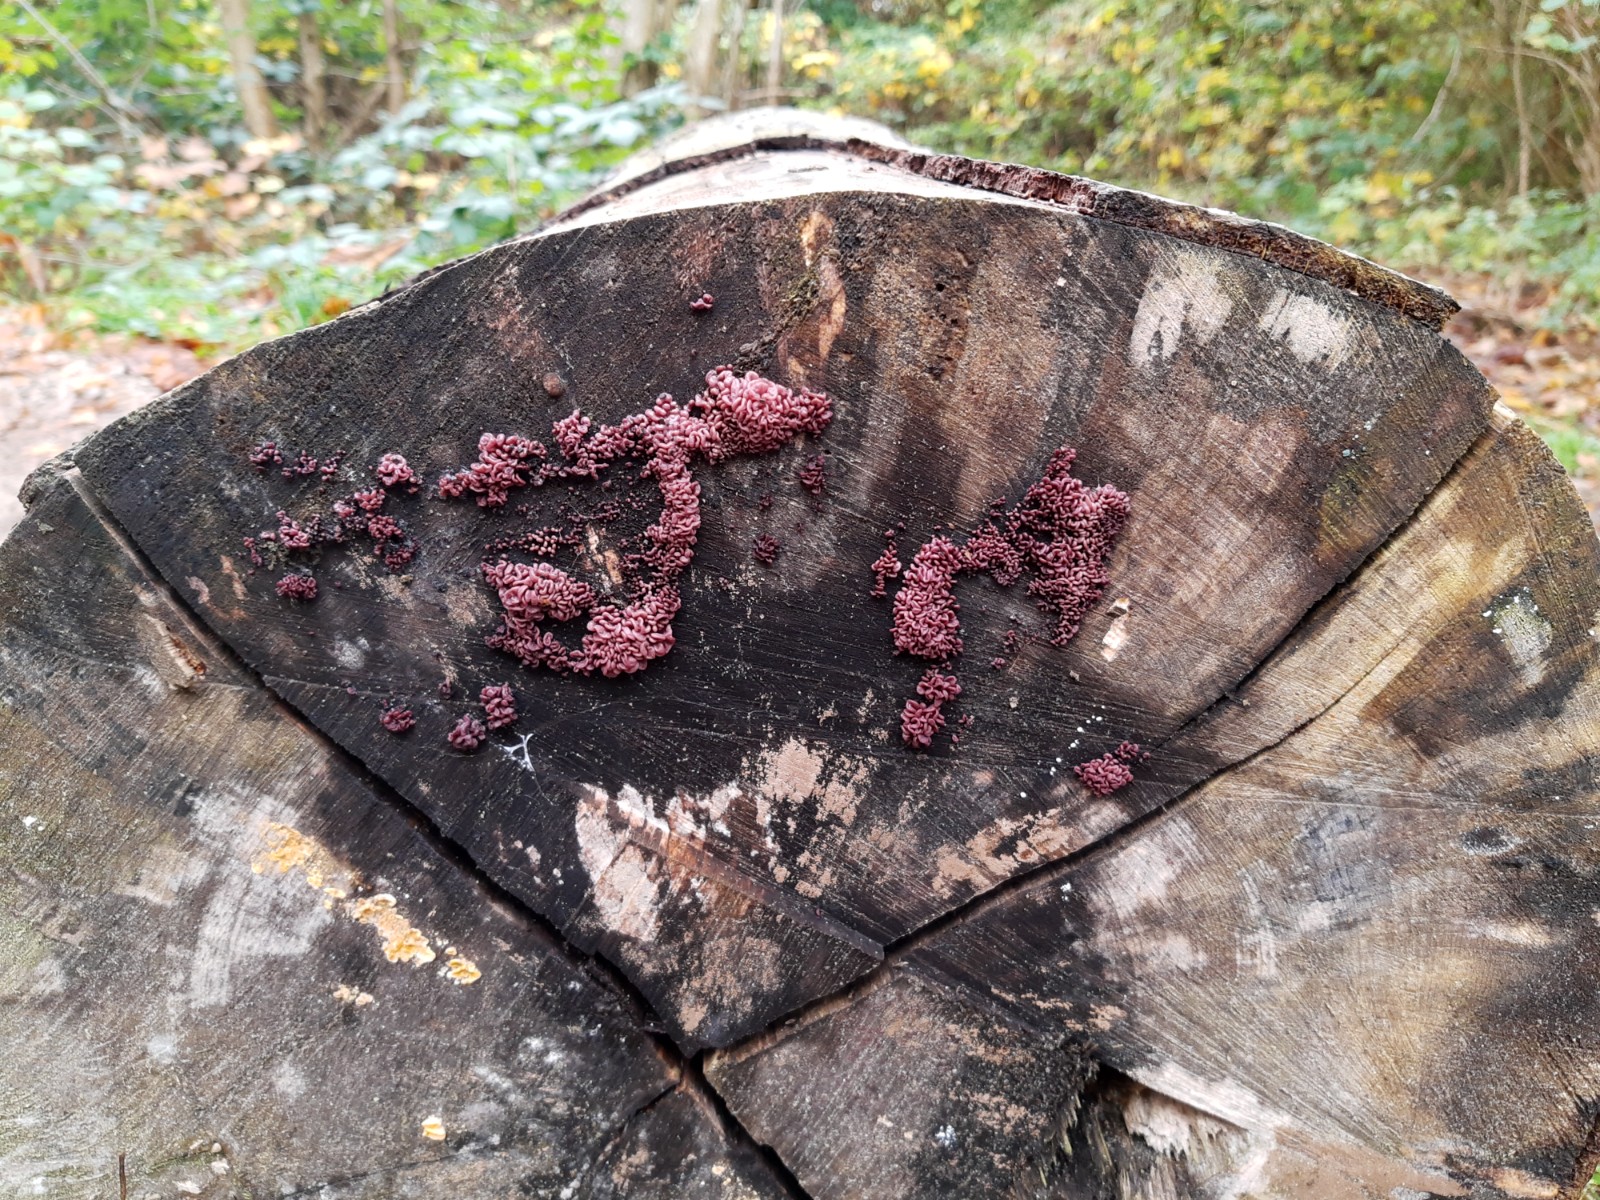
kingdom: Fungi
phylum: Ascomycota
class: Leotiomycetes
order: Helotiales
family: Gelatinodiscaceae
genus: Ascocoryne
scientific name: Ascocoryne sarcoides
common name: rødlilla sejskive
